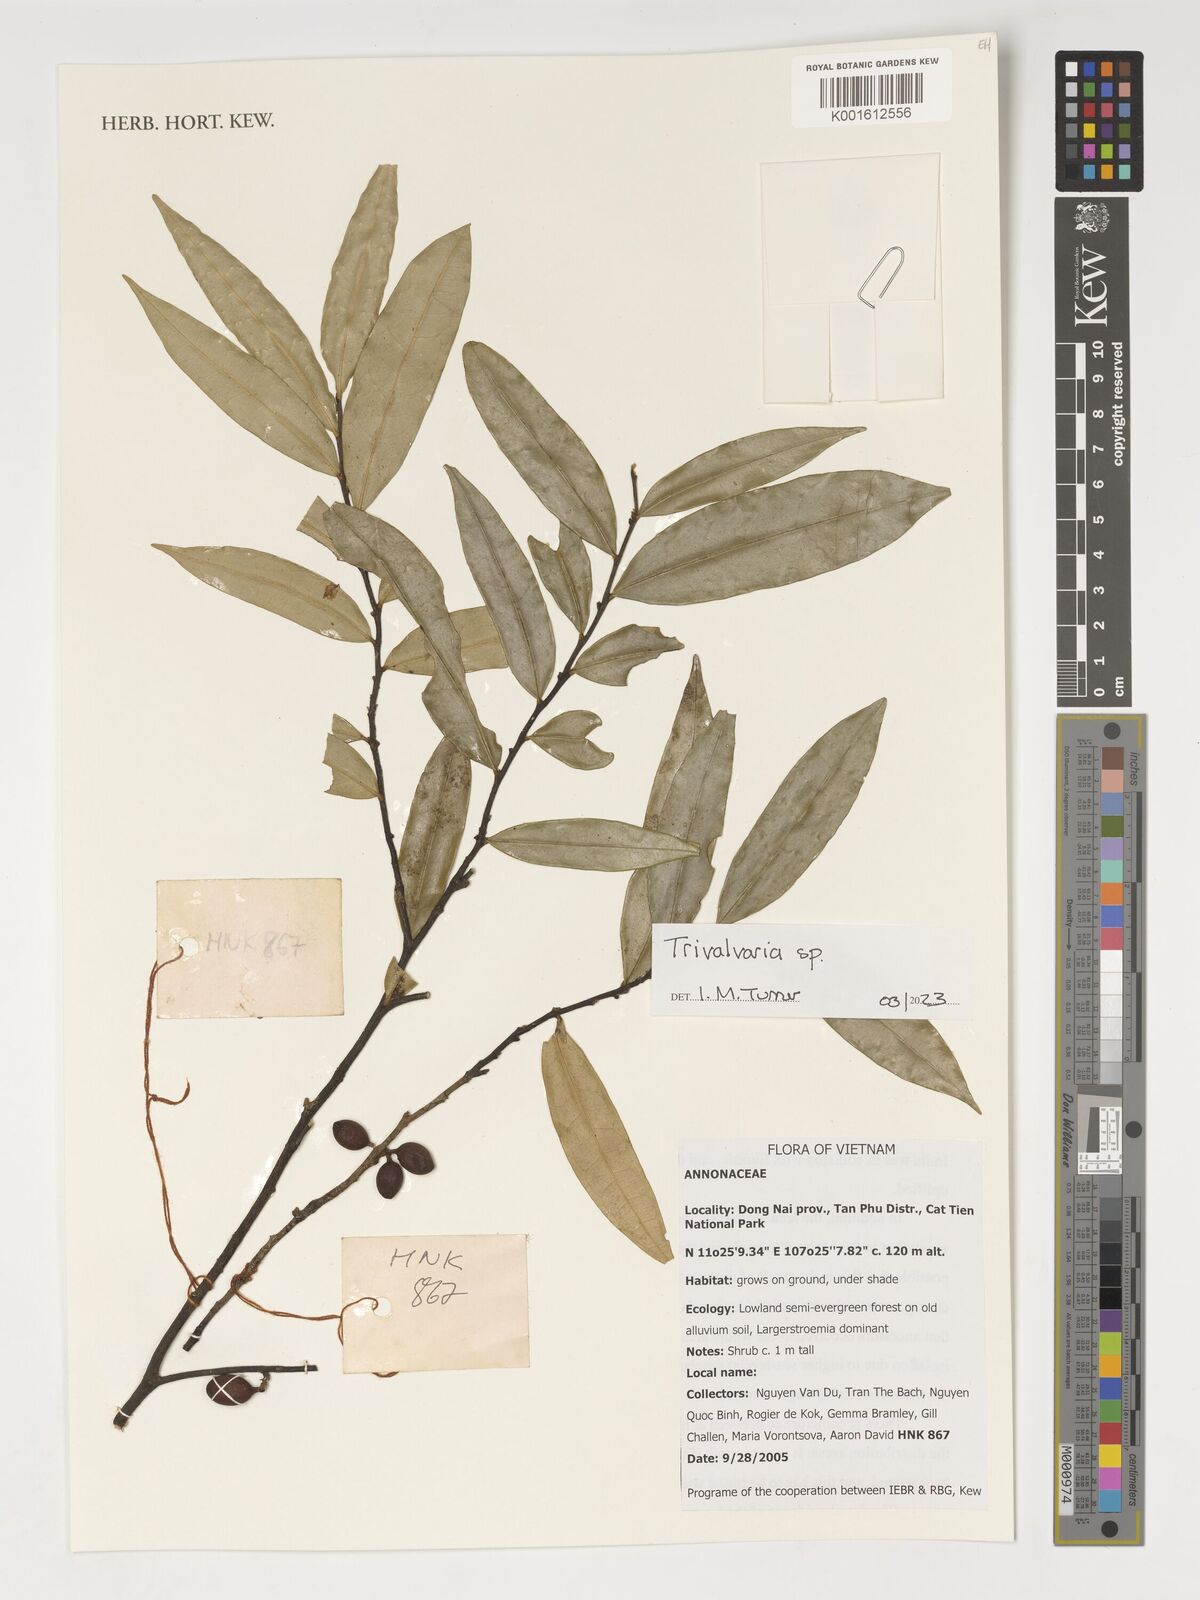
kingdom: Plantae
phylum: Tracheophyta
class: Magnoliopsida
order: Magnoliales
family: Annonaceae
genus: Trivalvaria
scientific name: Trivalvaria
